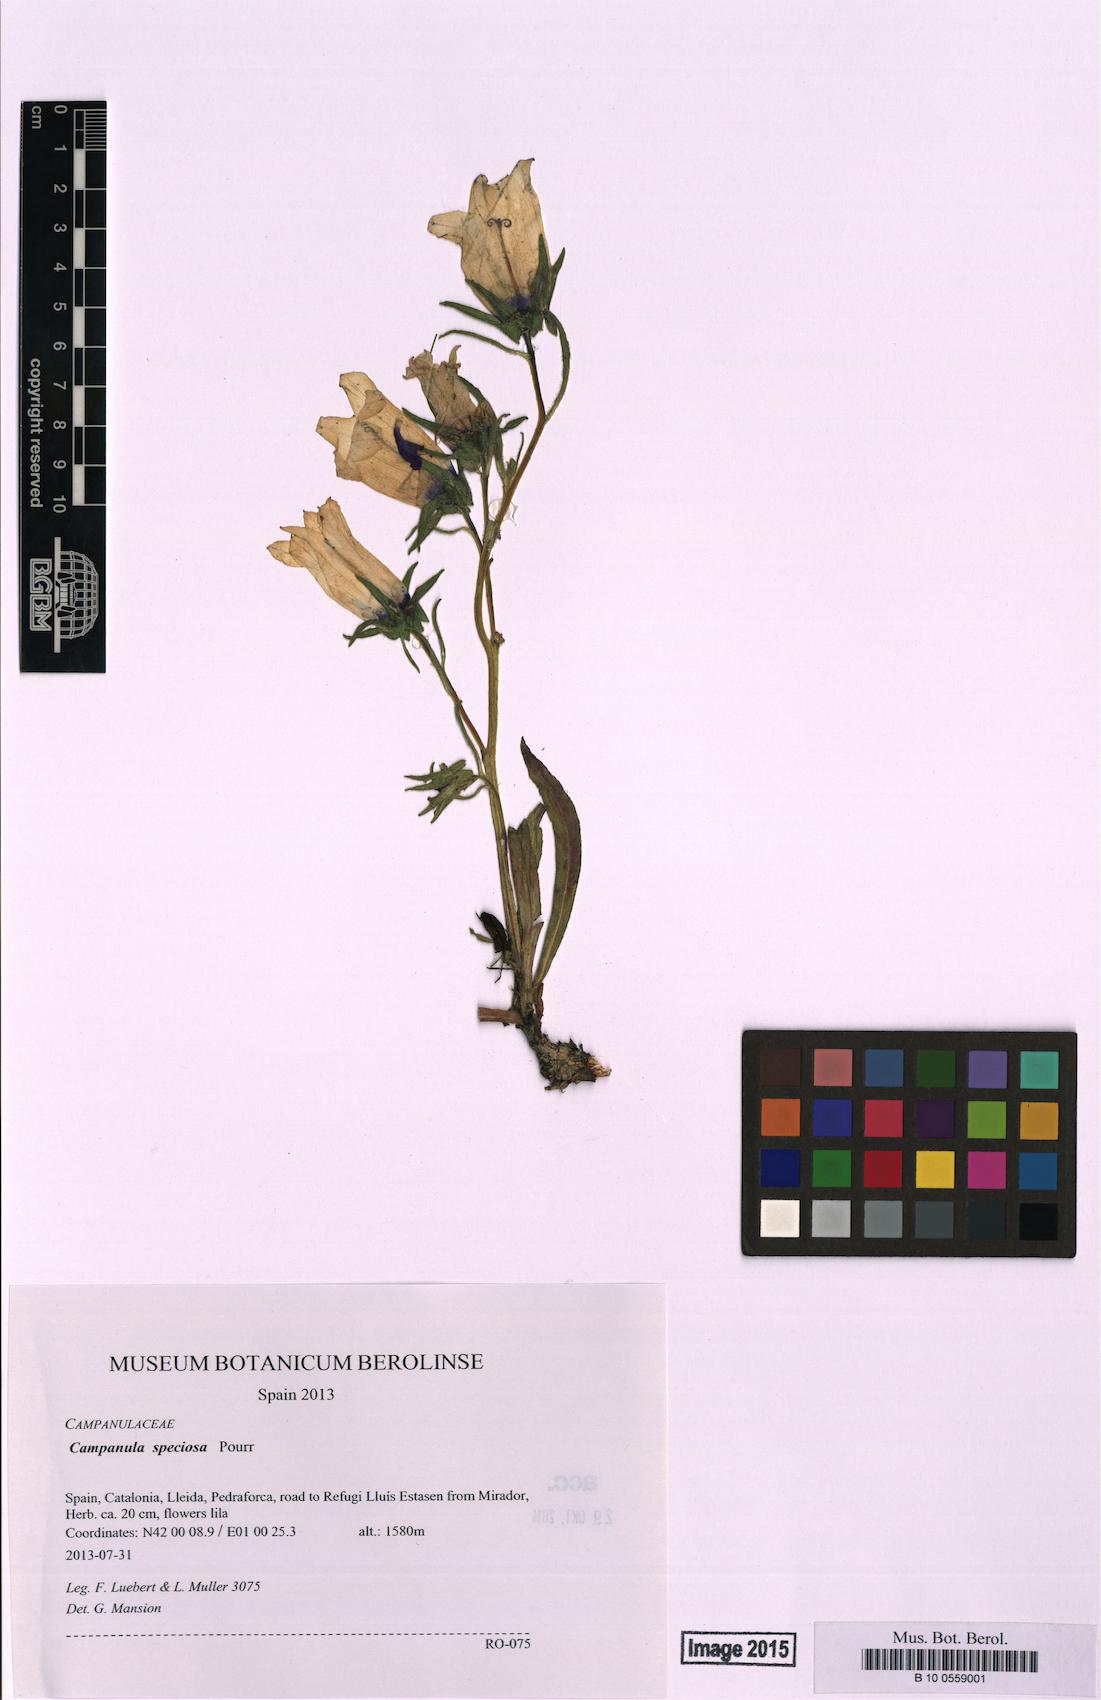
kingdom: Plantae
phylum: Tracheophyta
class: Magnoliopsida
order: Asterales
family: Campanulaceae
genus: Campanula
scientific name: Campanula speciosa
